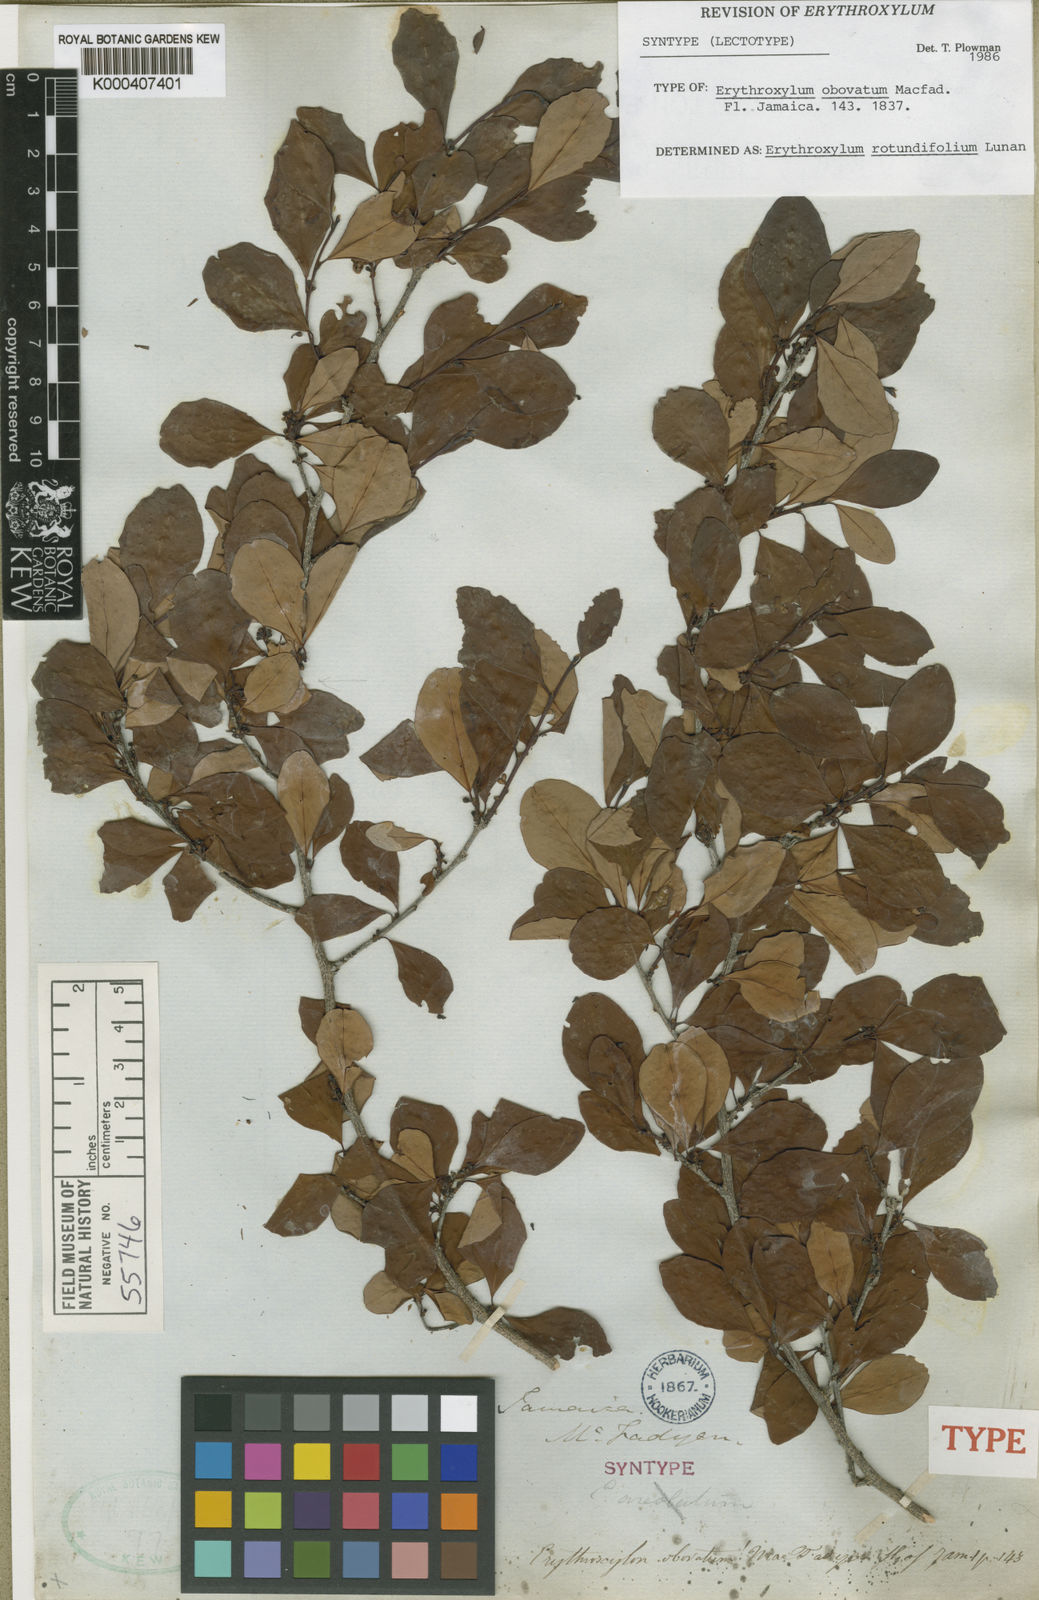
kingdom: Plantae
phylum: Tracheophyta
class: Magnoliopsida
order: Malpighiales
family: Erythroxylaceae
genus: Erythroxylum
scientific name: Erythroxylum rotundifolium
